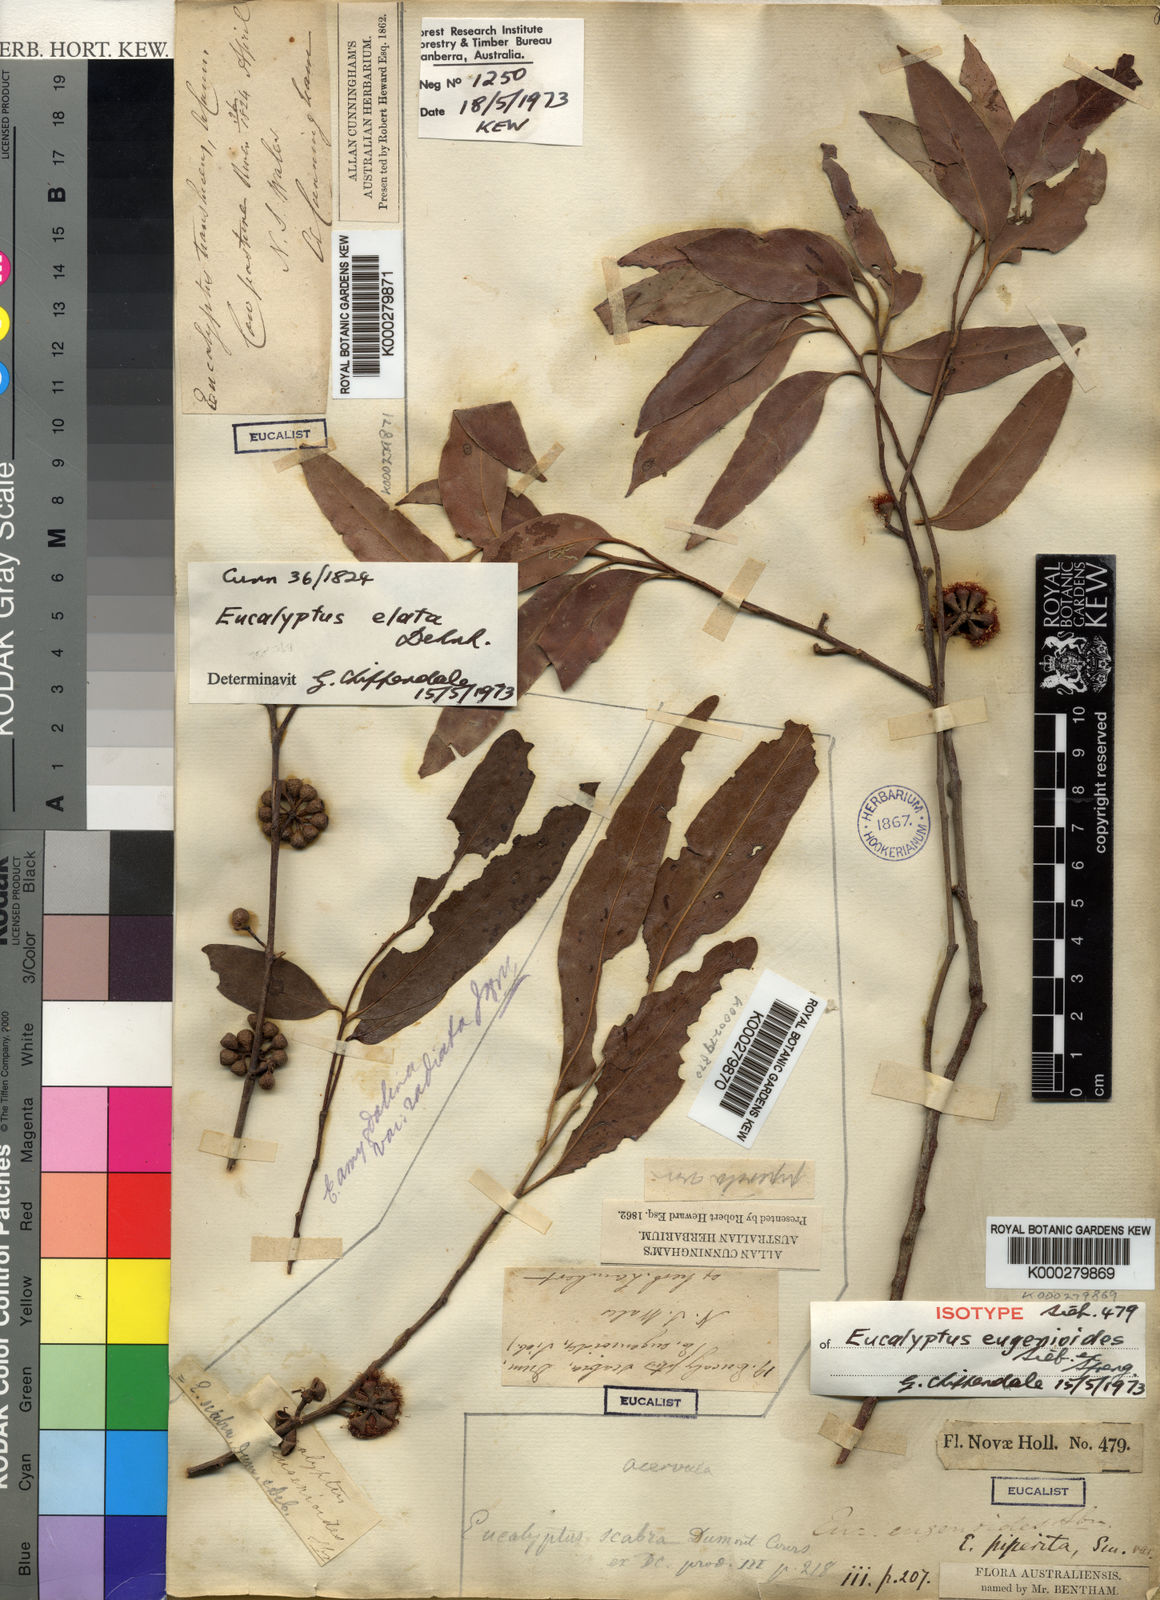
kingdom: Plantae
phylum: Tracheophyta
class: Magnoliopsida
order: Myrtales
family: Myrtaceae
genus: Eucalyptus
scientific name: Eucalyptus eugenioides
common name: Narrow-leaved-stringybark
